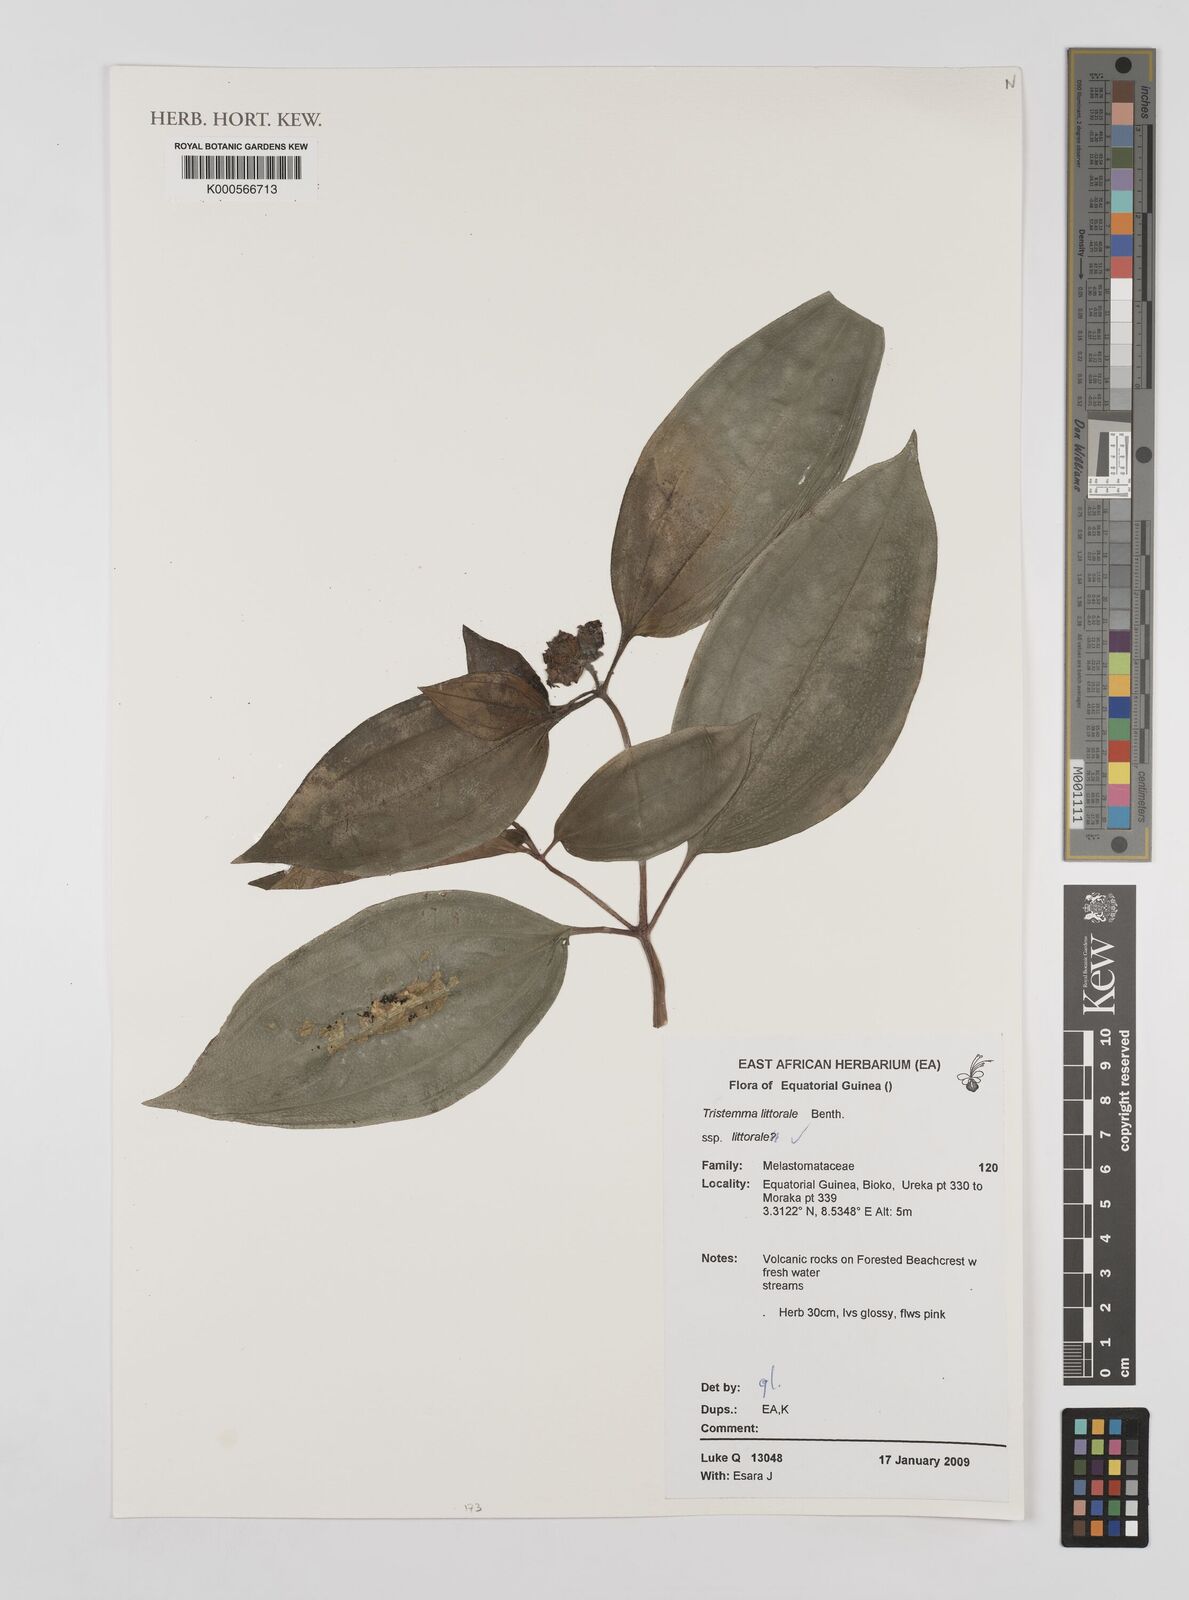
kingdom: Plantae
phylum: Tracheophyta
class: Magnoliopsida
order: Myrtales
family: Melastomataceae
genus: Tristemma
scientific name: Tristemma littorale
